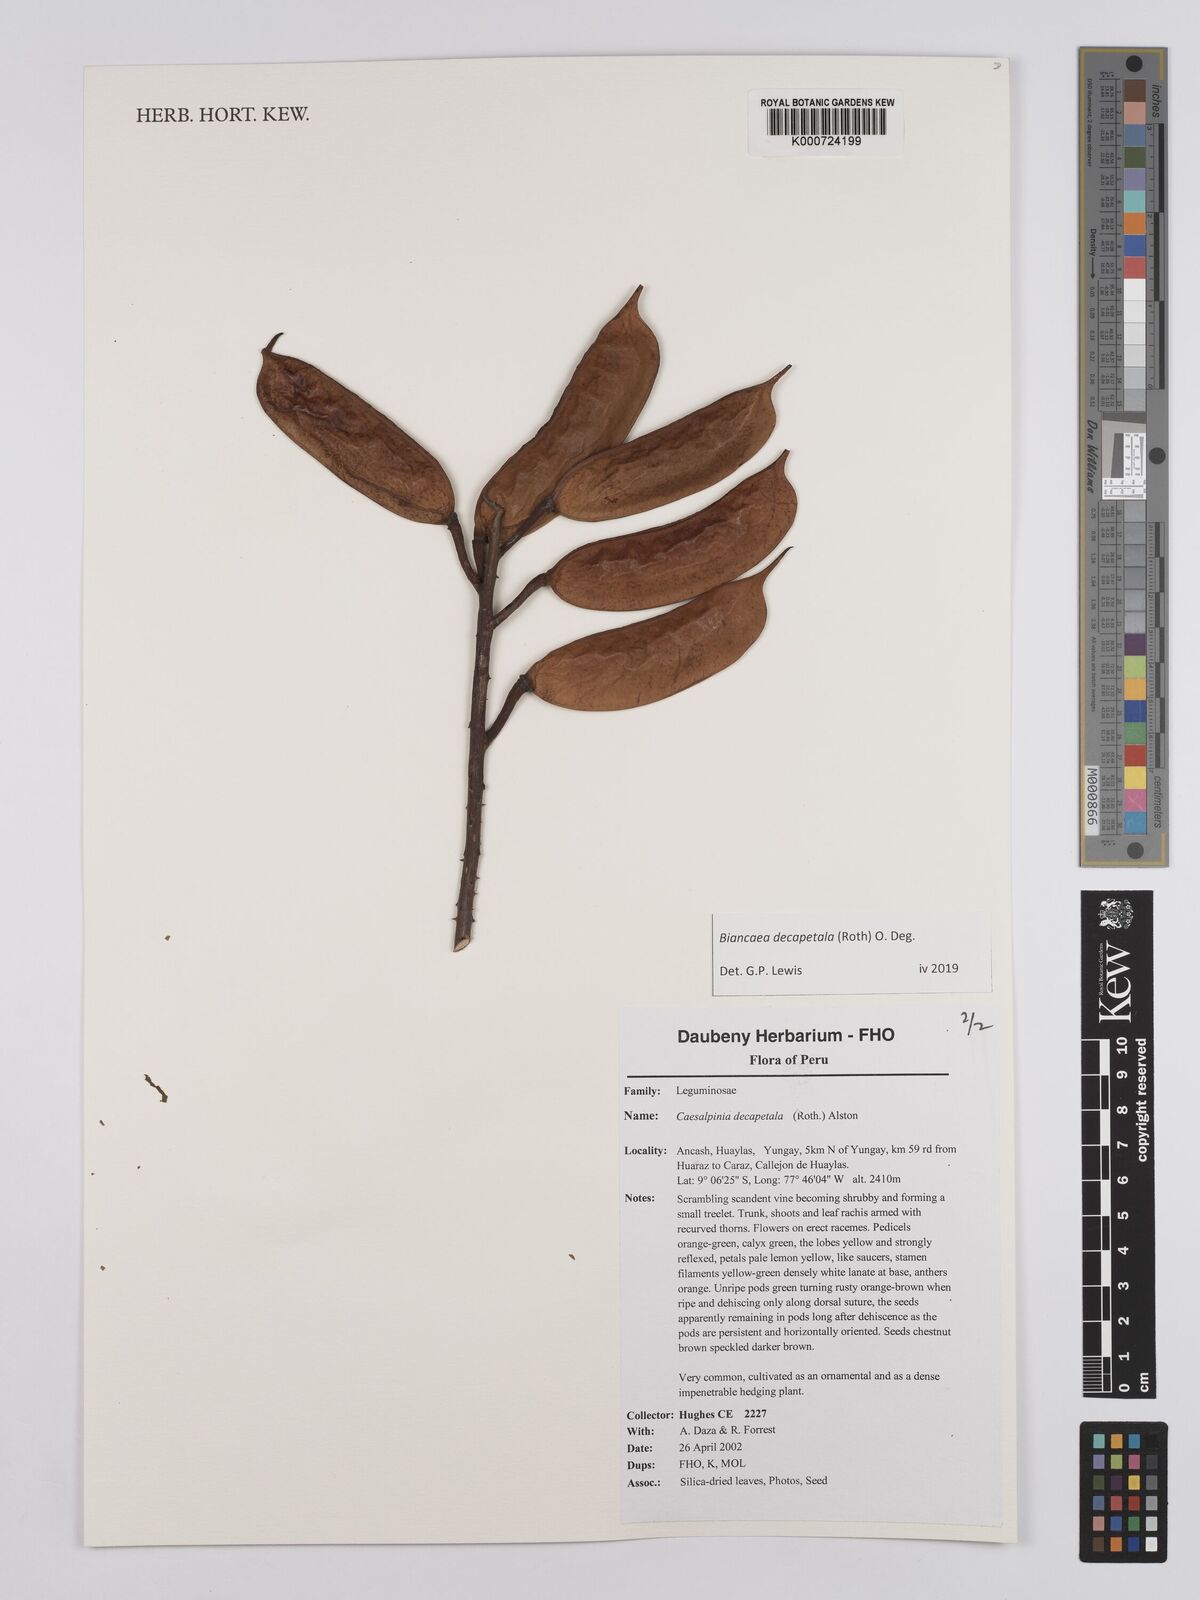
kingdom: Plantae
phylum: Tracheophyta
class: Magnoliopsida
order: Fabales
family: Fabaceae
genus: Biancaea
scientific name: Biancaea decapetala
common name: Cat's claw
